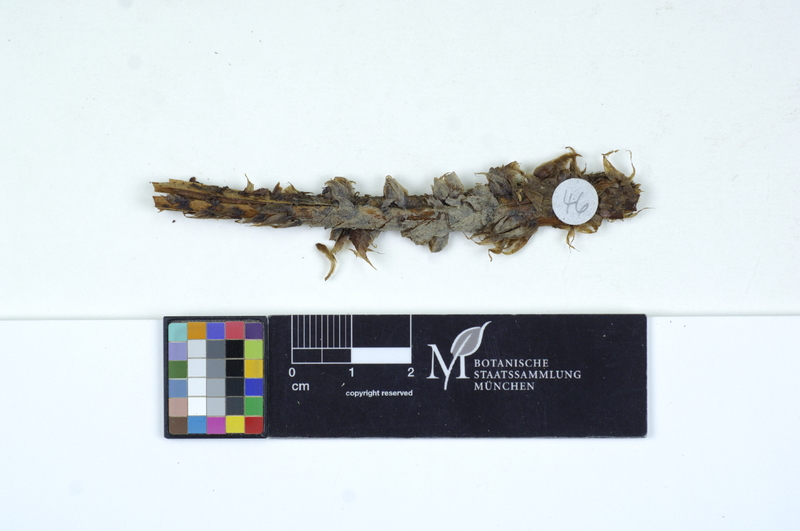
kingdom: Fungi
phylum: Basidiomycota
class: Agaricomycetes
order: Cantharellales
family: Ceratobasidiaceae
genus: Ceratobasidium
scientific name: Ceratobasidium cornigerum
